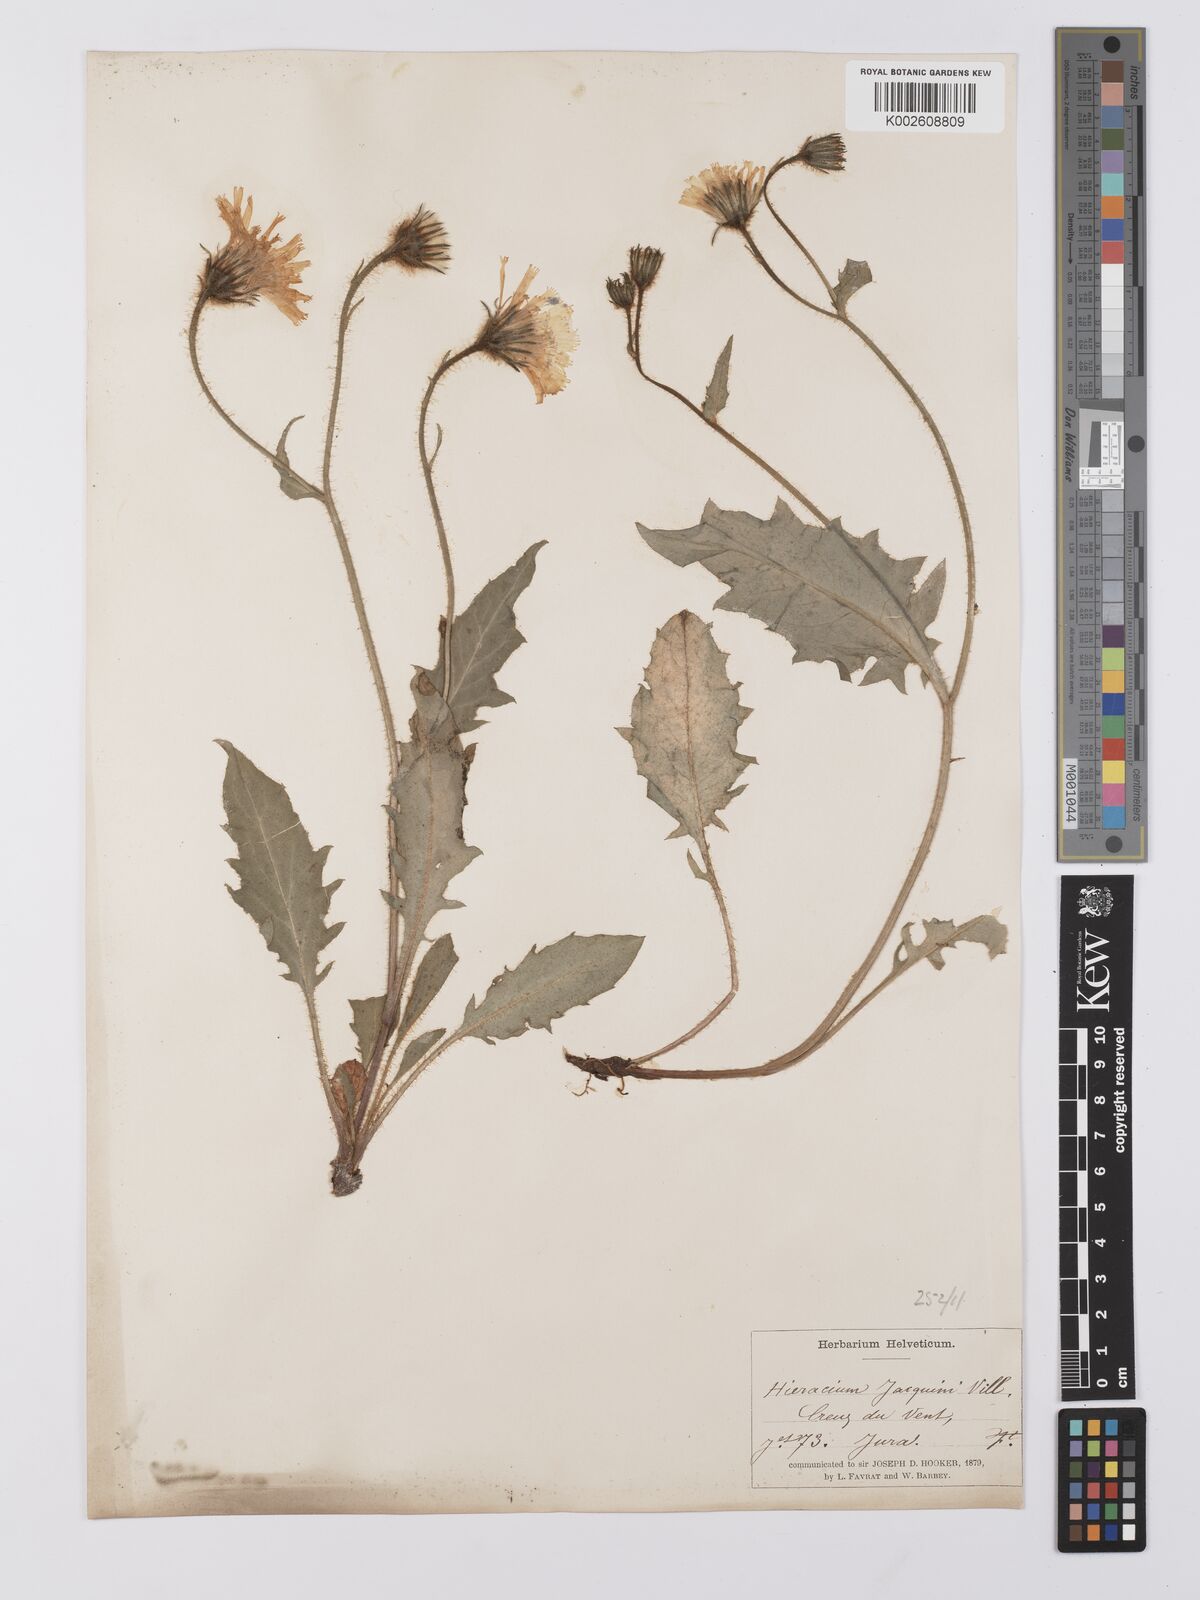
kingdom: Plantae
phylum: Tracheophyta
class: Magnoliopsida
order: Asterales
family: Asteraceae
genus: Hieracium
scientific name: Hieracium humile
